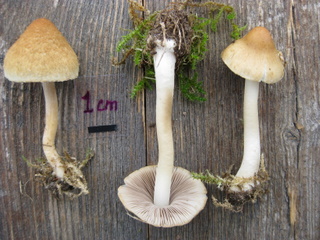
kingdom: Fungi
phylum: Basidiomycota
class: Agaricomycetes
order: Agaricales
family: Inocybaceae
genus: Inocybe
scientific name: Inocybe sindonia
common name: bleg trævlhat
